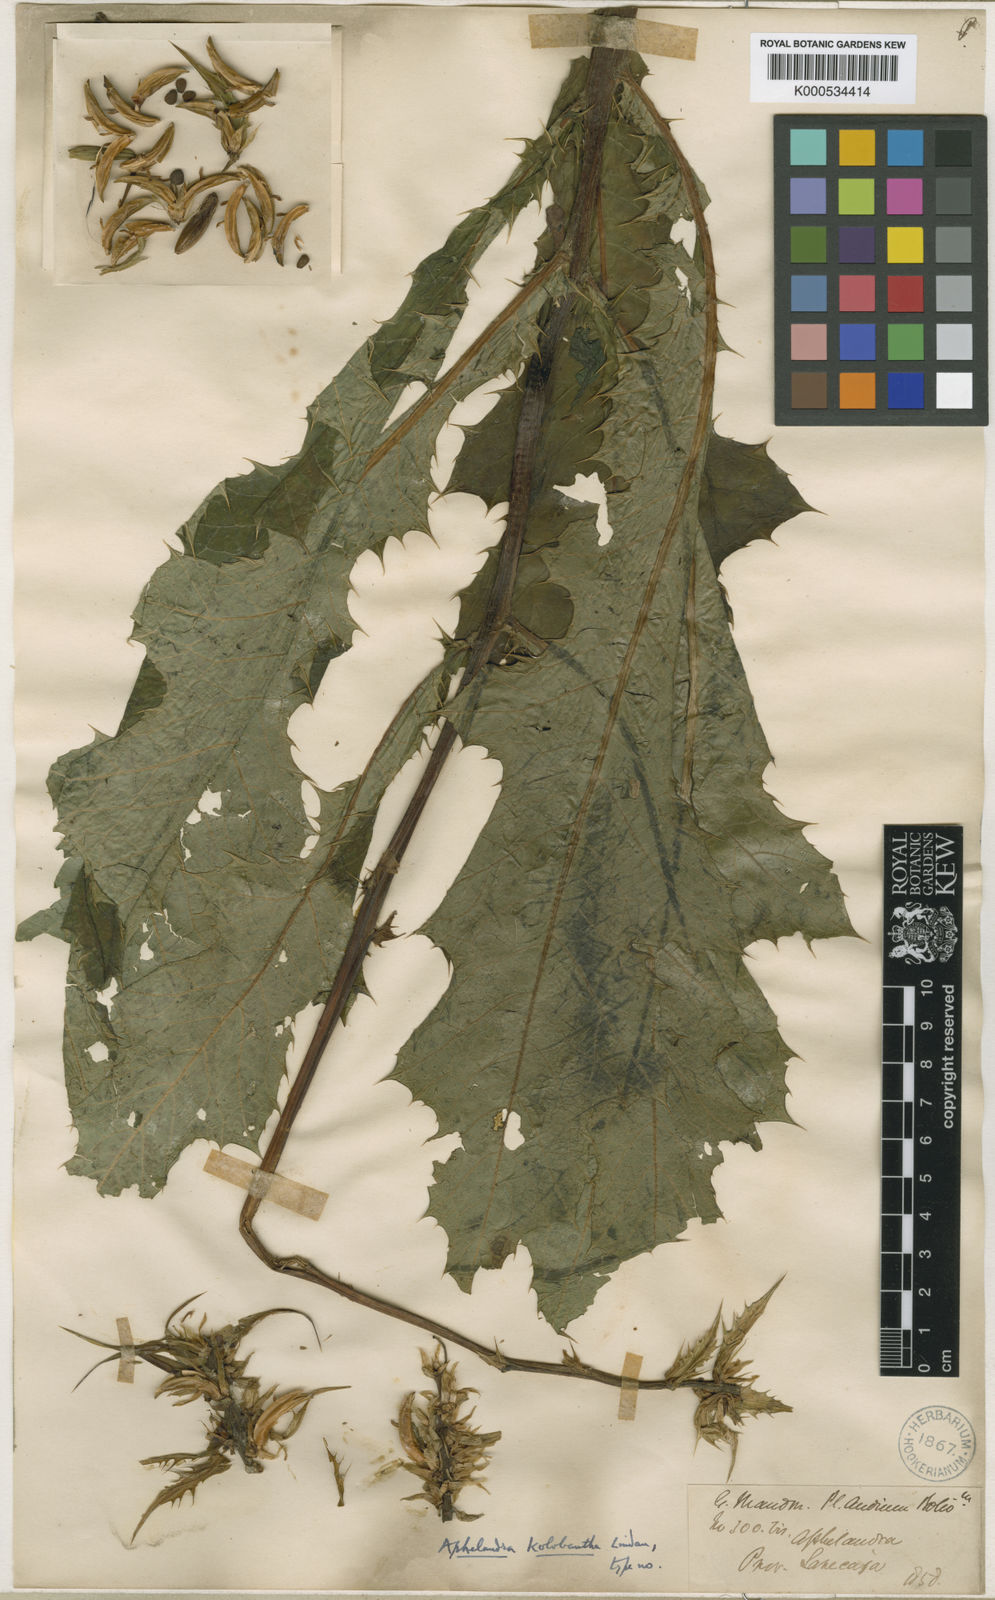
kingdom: Plantae
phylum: Tracheophyta
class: Magnoliopsida
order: Lamiales
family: Acanthaceae
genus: Aphelandra
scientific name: Aphelandra kolobantha
